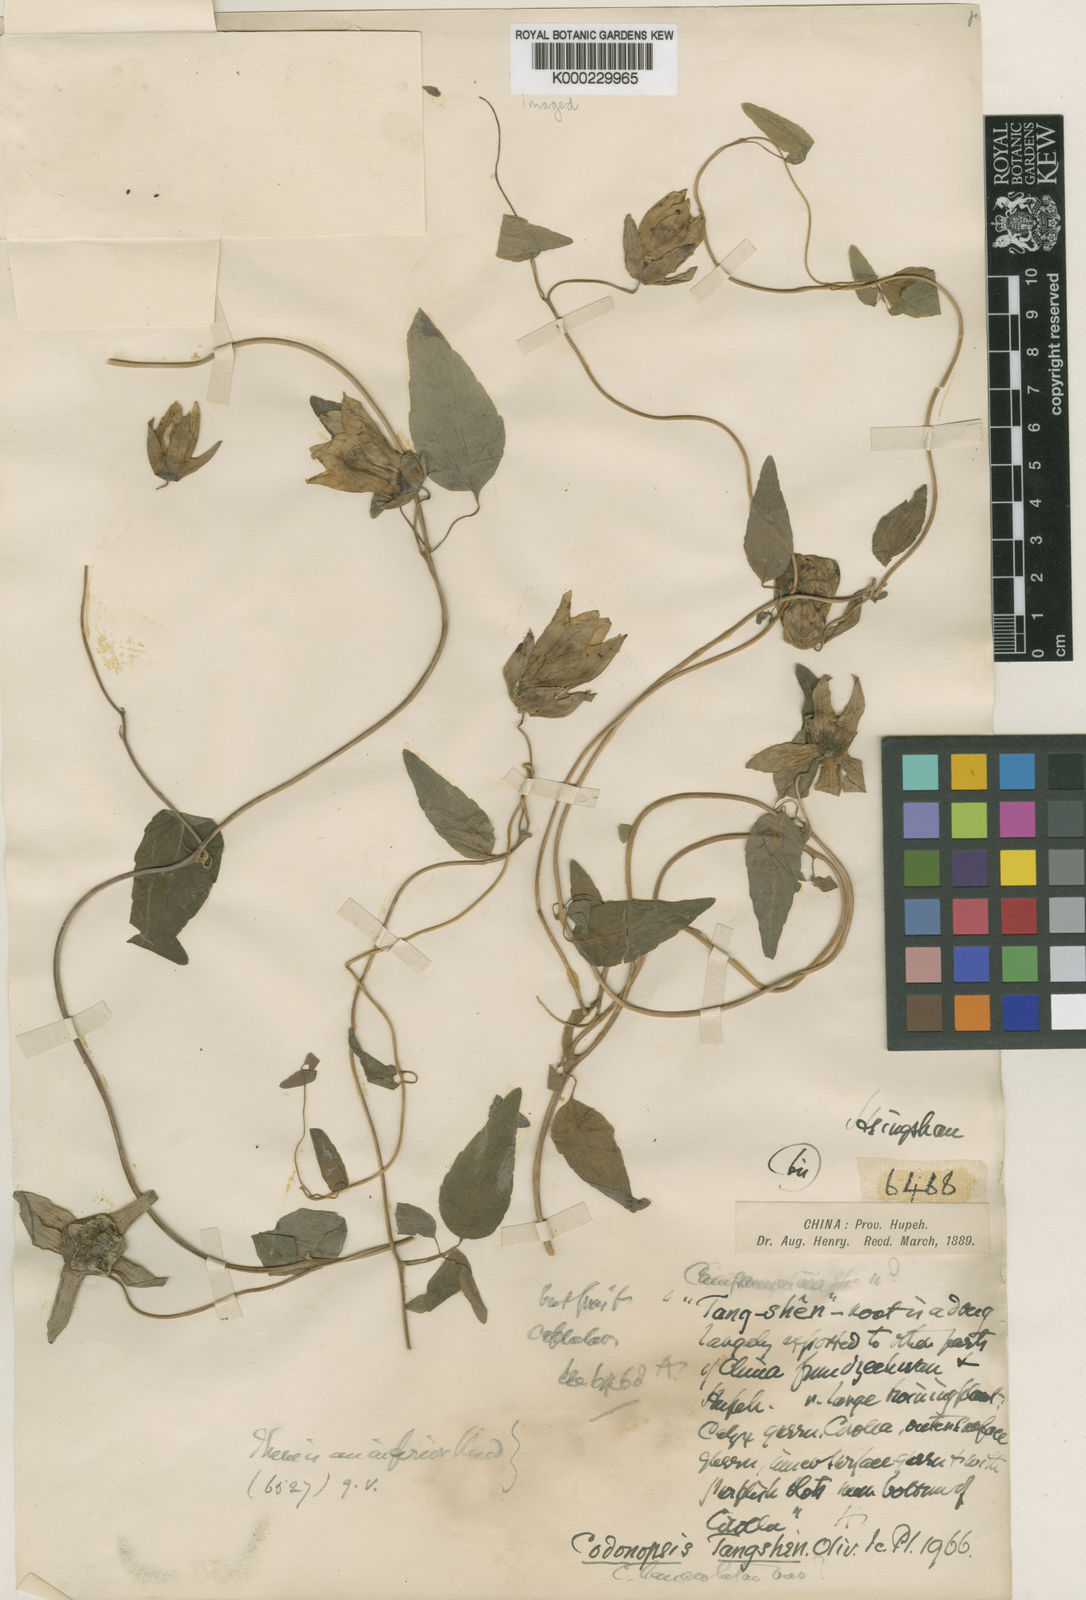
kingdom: Plantae
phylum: Tracheophyta
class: Magnoliopsida
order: Asterales
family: Campanulaceae
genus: Codonopsis
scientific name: Codonopsis pilosula
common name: Bellflower
